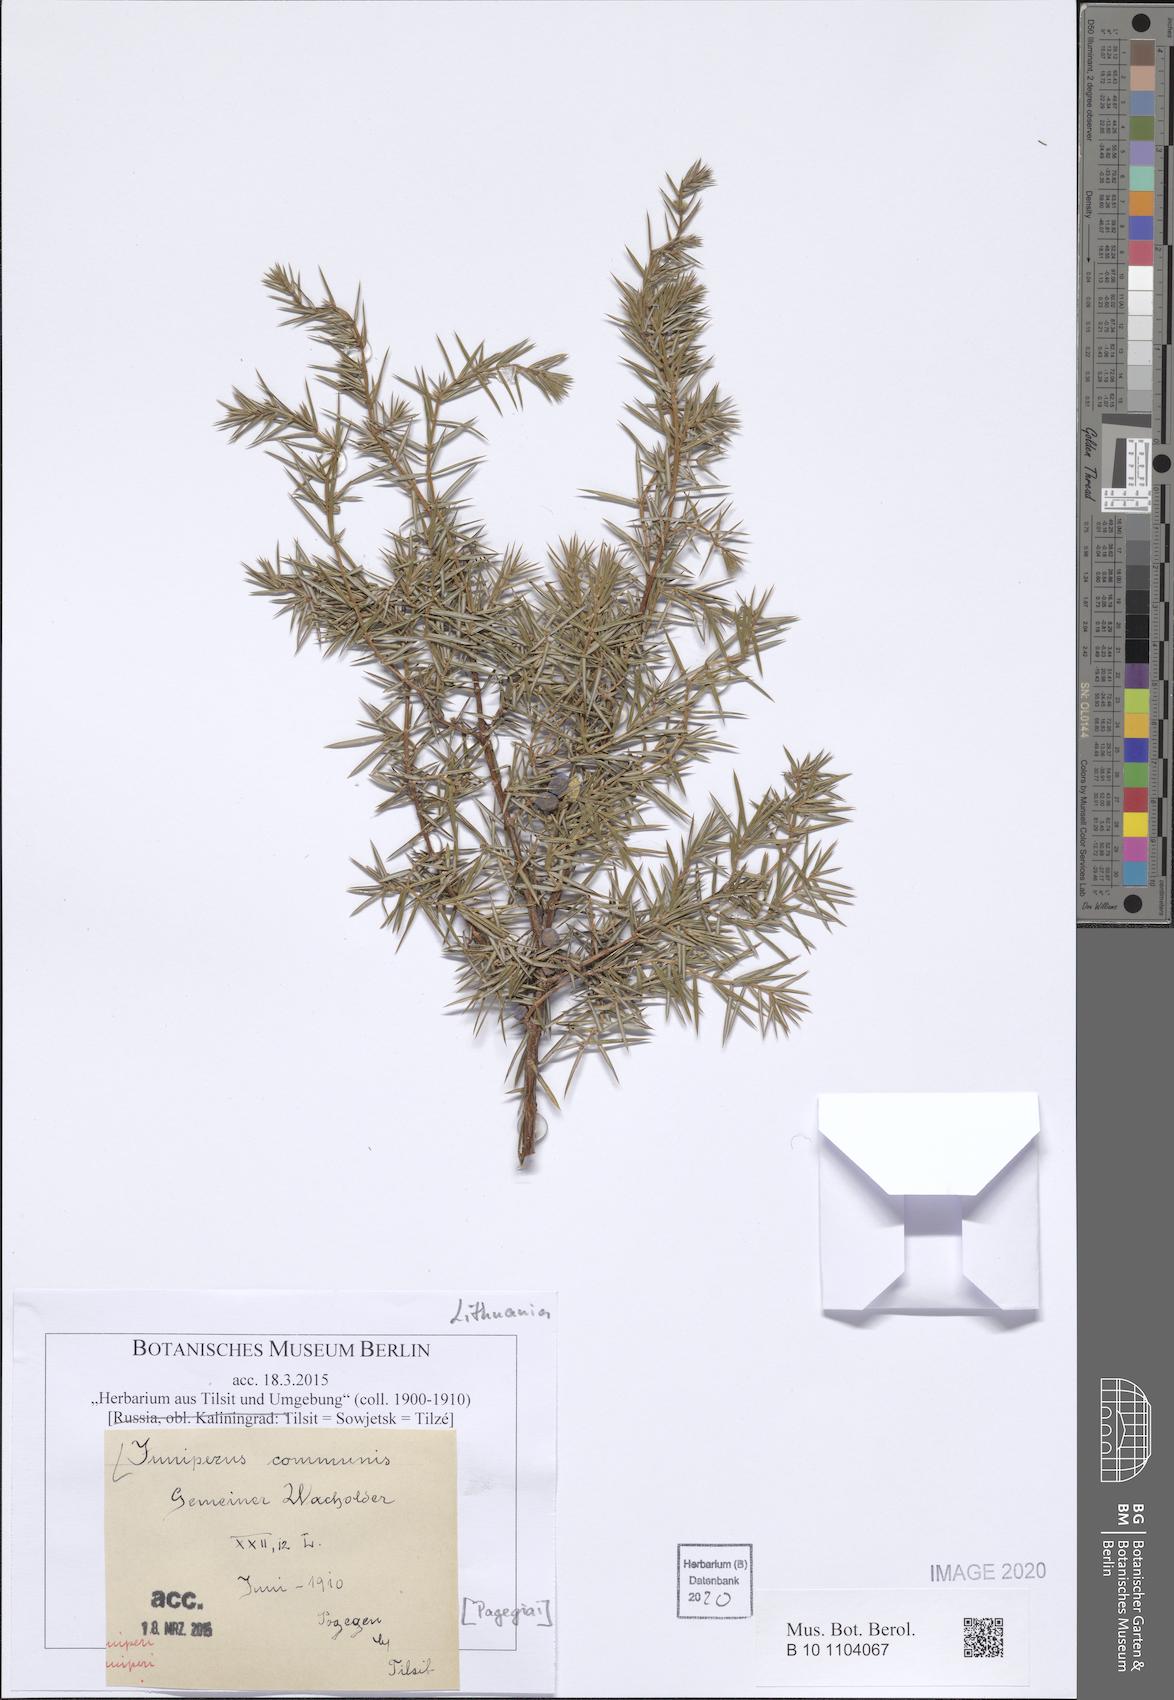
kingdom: Plantae
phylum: Tracheophyta
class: Pinopsida
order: Pinales
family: Cupressaceae
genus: Juniperus
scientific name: Juniperus communis
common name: Common juniper
